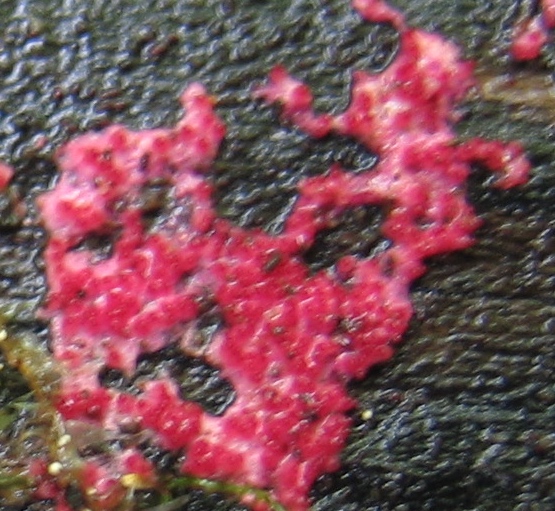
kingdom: Fungi
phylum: Ascomycota
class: Sordariomycetes
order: Hypocreales
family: Hypocreaceae
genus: Hypomyces
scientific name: Hypomyces rosellus
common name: rosa snylteskorpe
